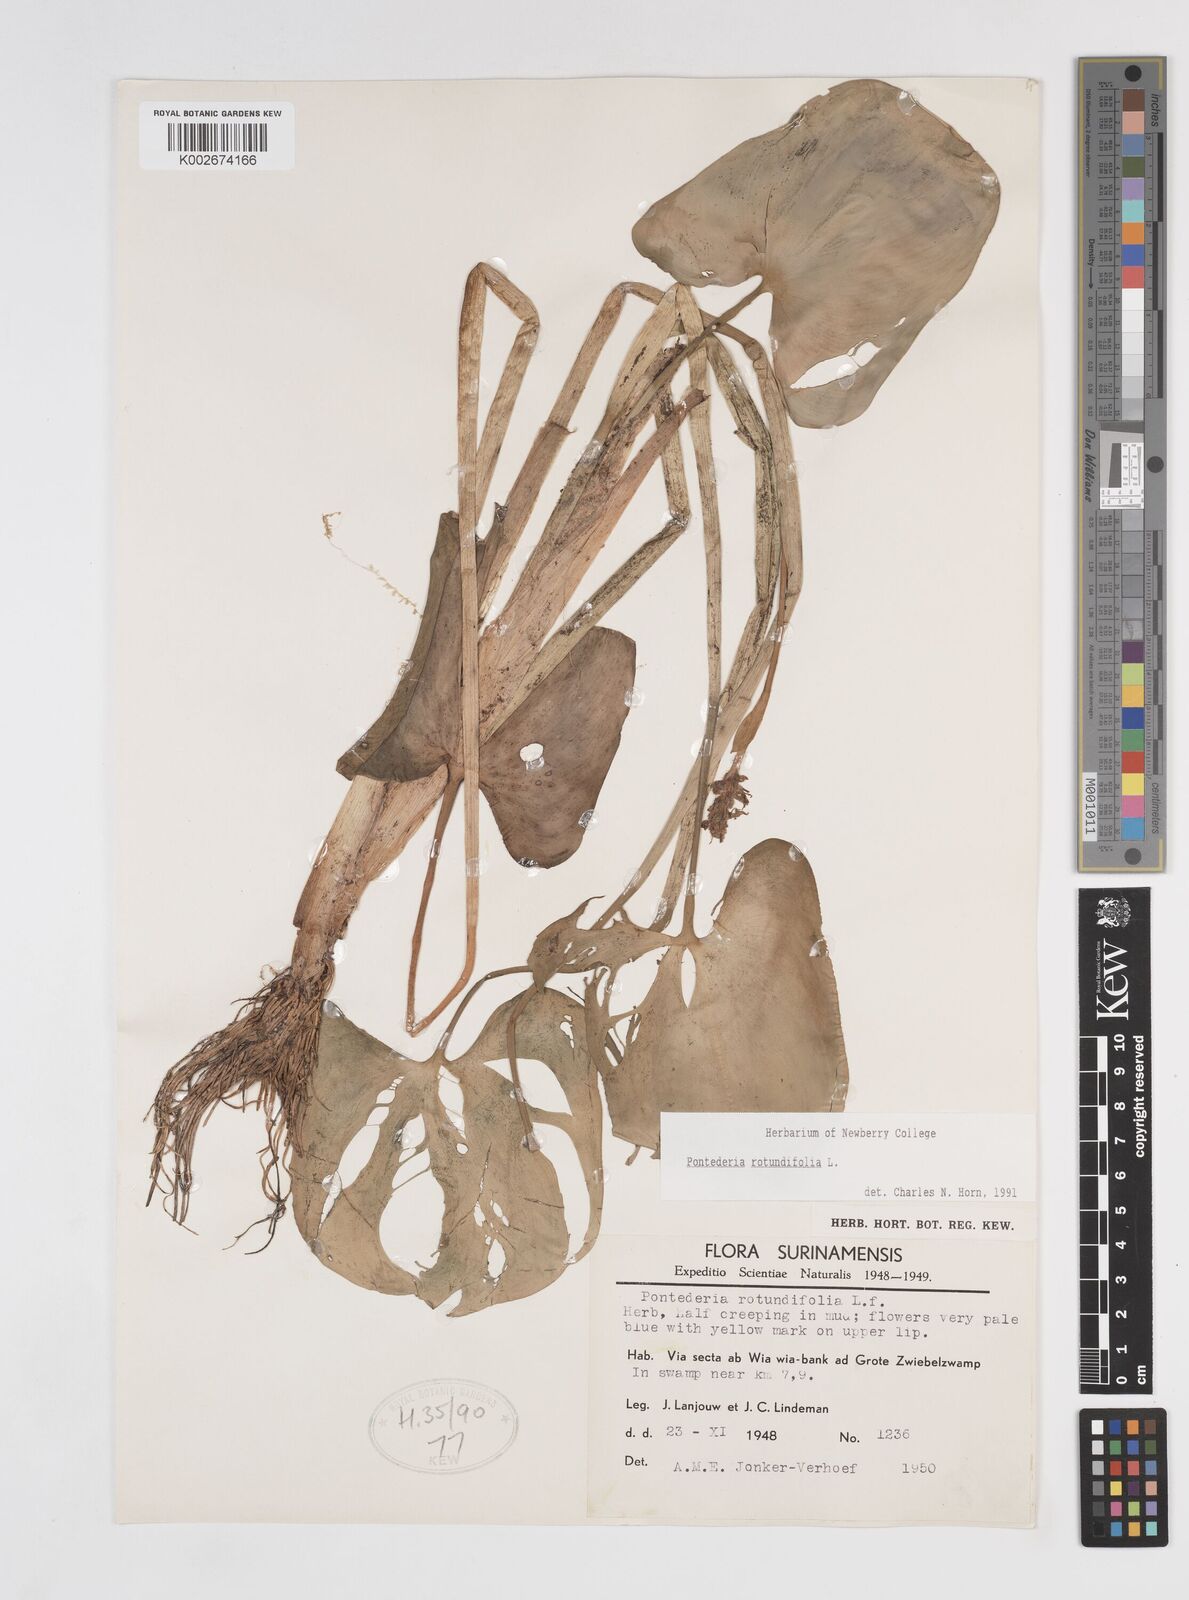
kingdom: Plantae
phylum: Tracheophyta
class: Liliopsida
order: Commelinales
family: Pontederiaceae
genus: Pontederia
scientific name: Pontederia rotundifolia
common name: Tropical pickerel-weed
